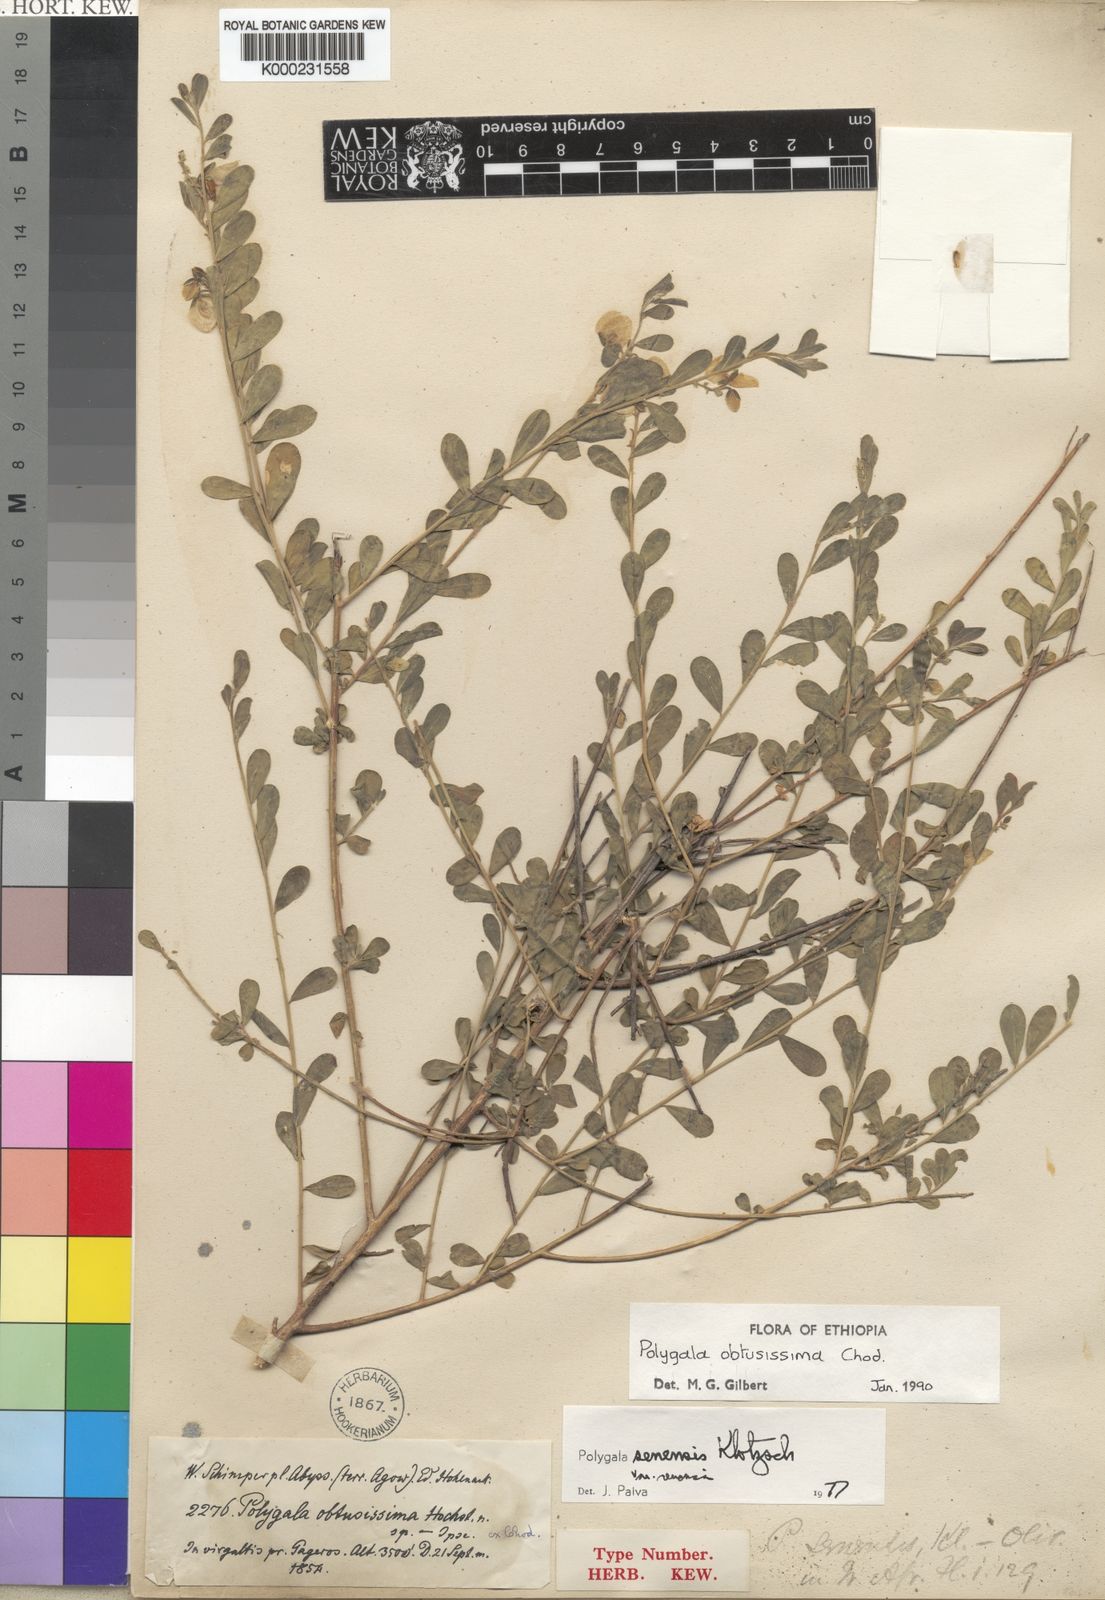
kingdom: Plantae
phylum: Tracheophyta
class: Magnoliopsida
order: Fabales
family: Polygalaceae
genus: Polygala
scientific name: Polygala senensis
